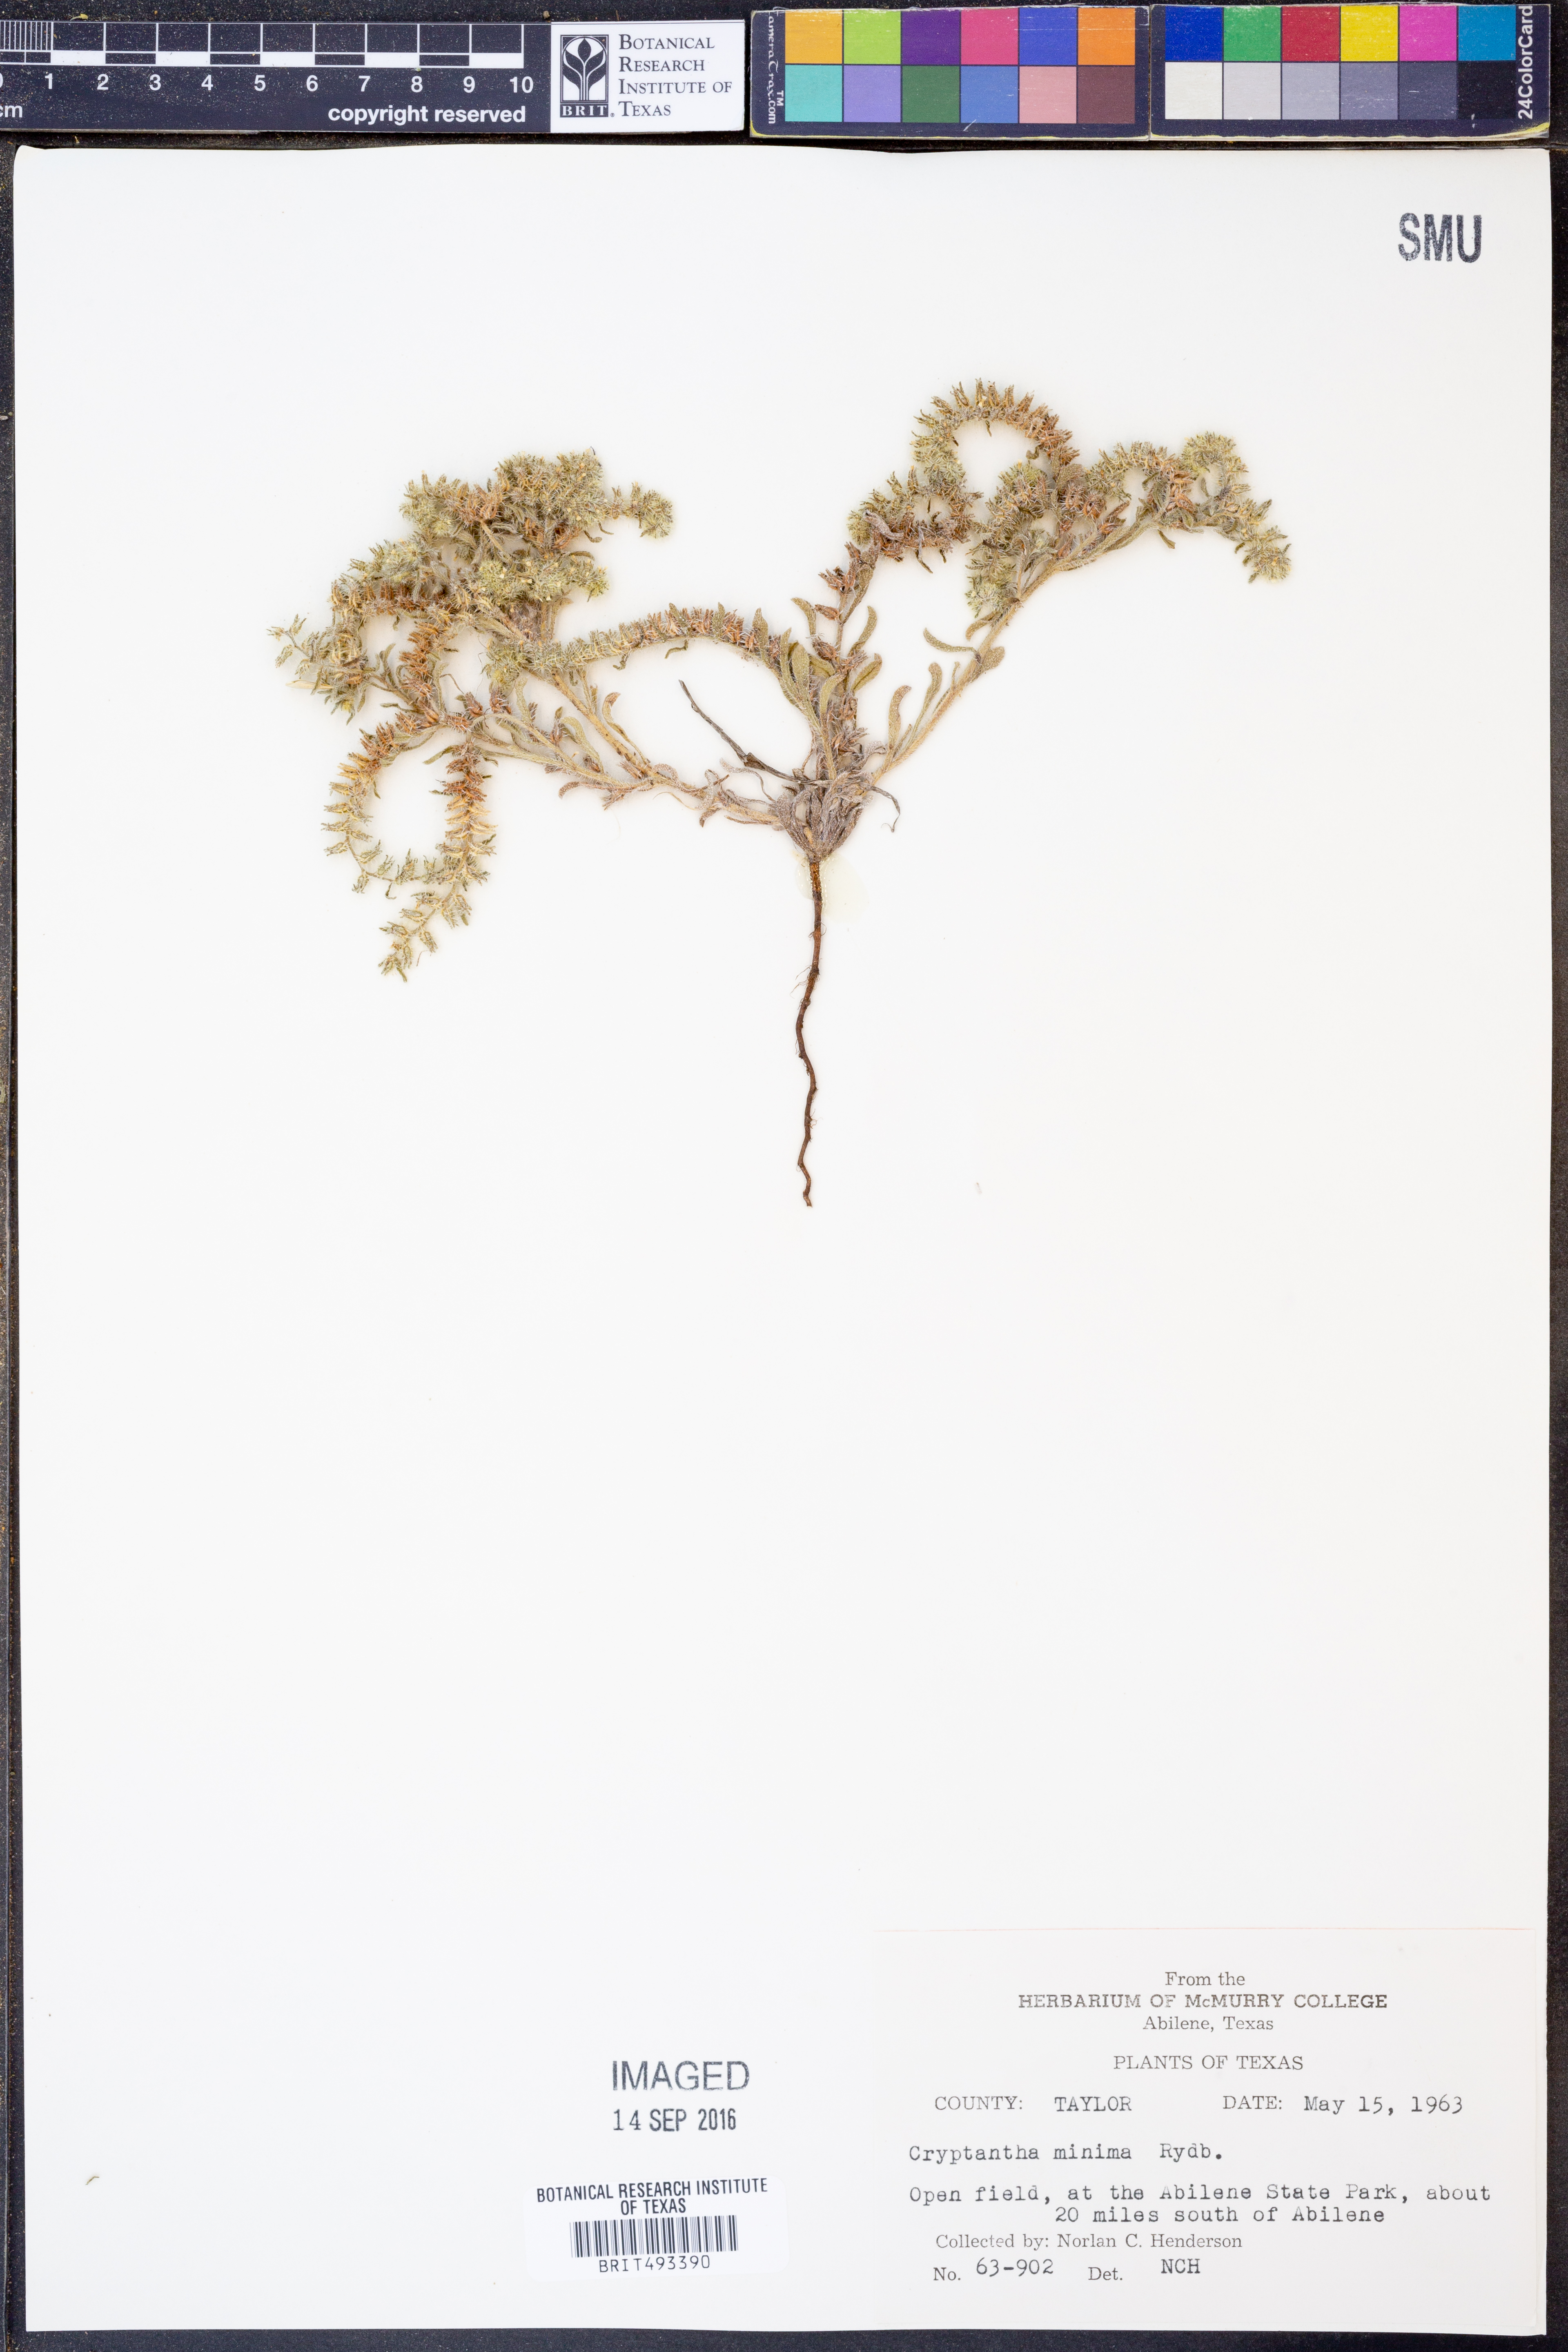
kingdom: Plantae
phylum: Tracheophyta
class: Magnoliopsida
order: Boraginales
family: Boraginaceae
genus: Cryptantha
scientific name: Cryptantha minima
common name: Little cat's-eye
